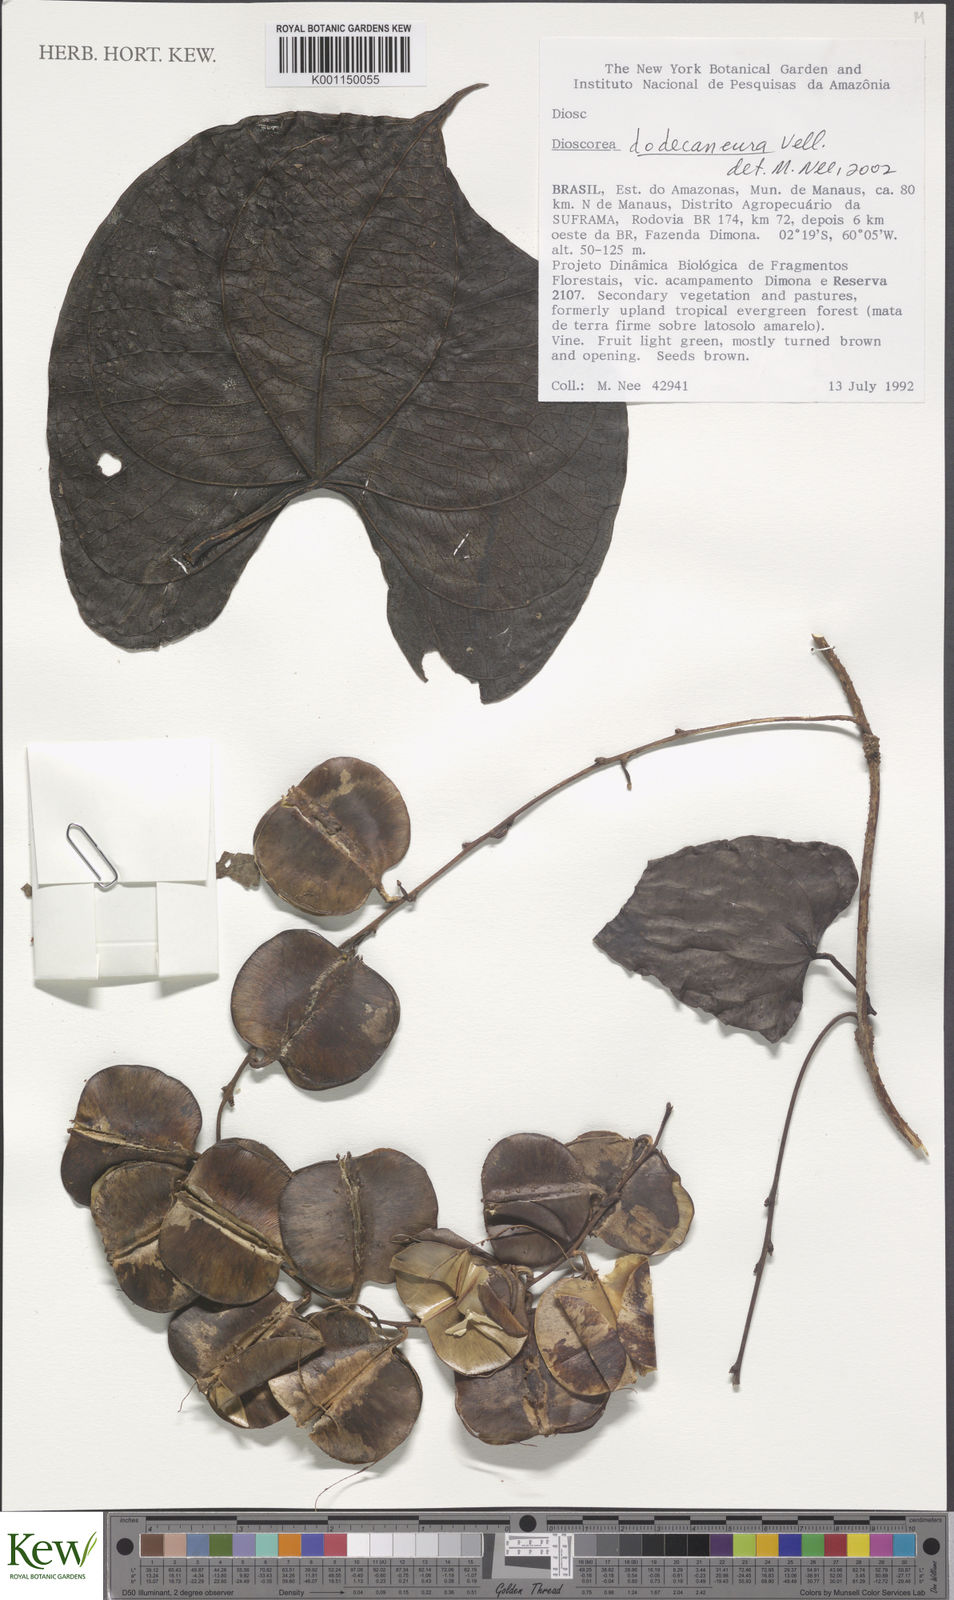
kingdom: Plantae
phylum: Tracheophyta
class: Liliopsida
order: Dioscoreales
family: Dioscoreaceae
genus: Dioscorea
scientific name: Dioscorea
